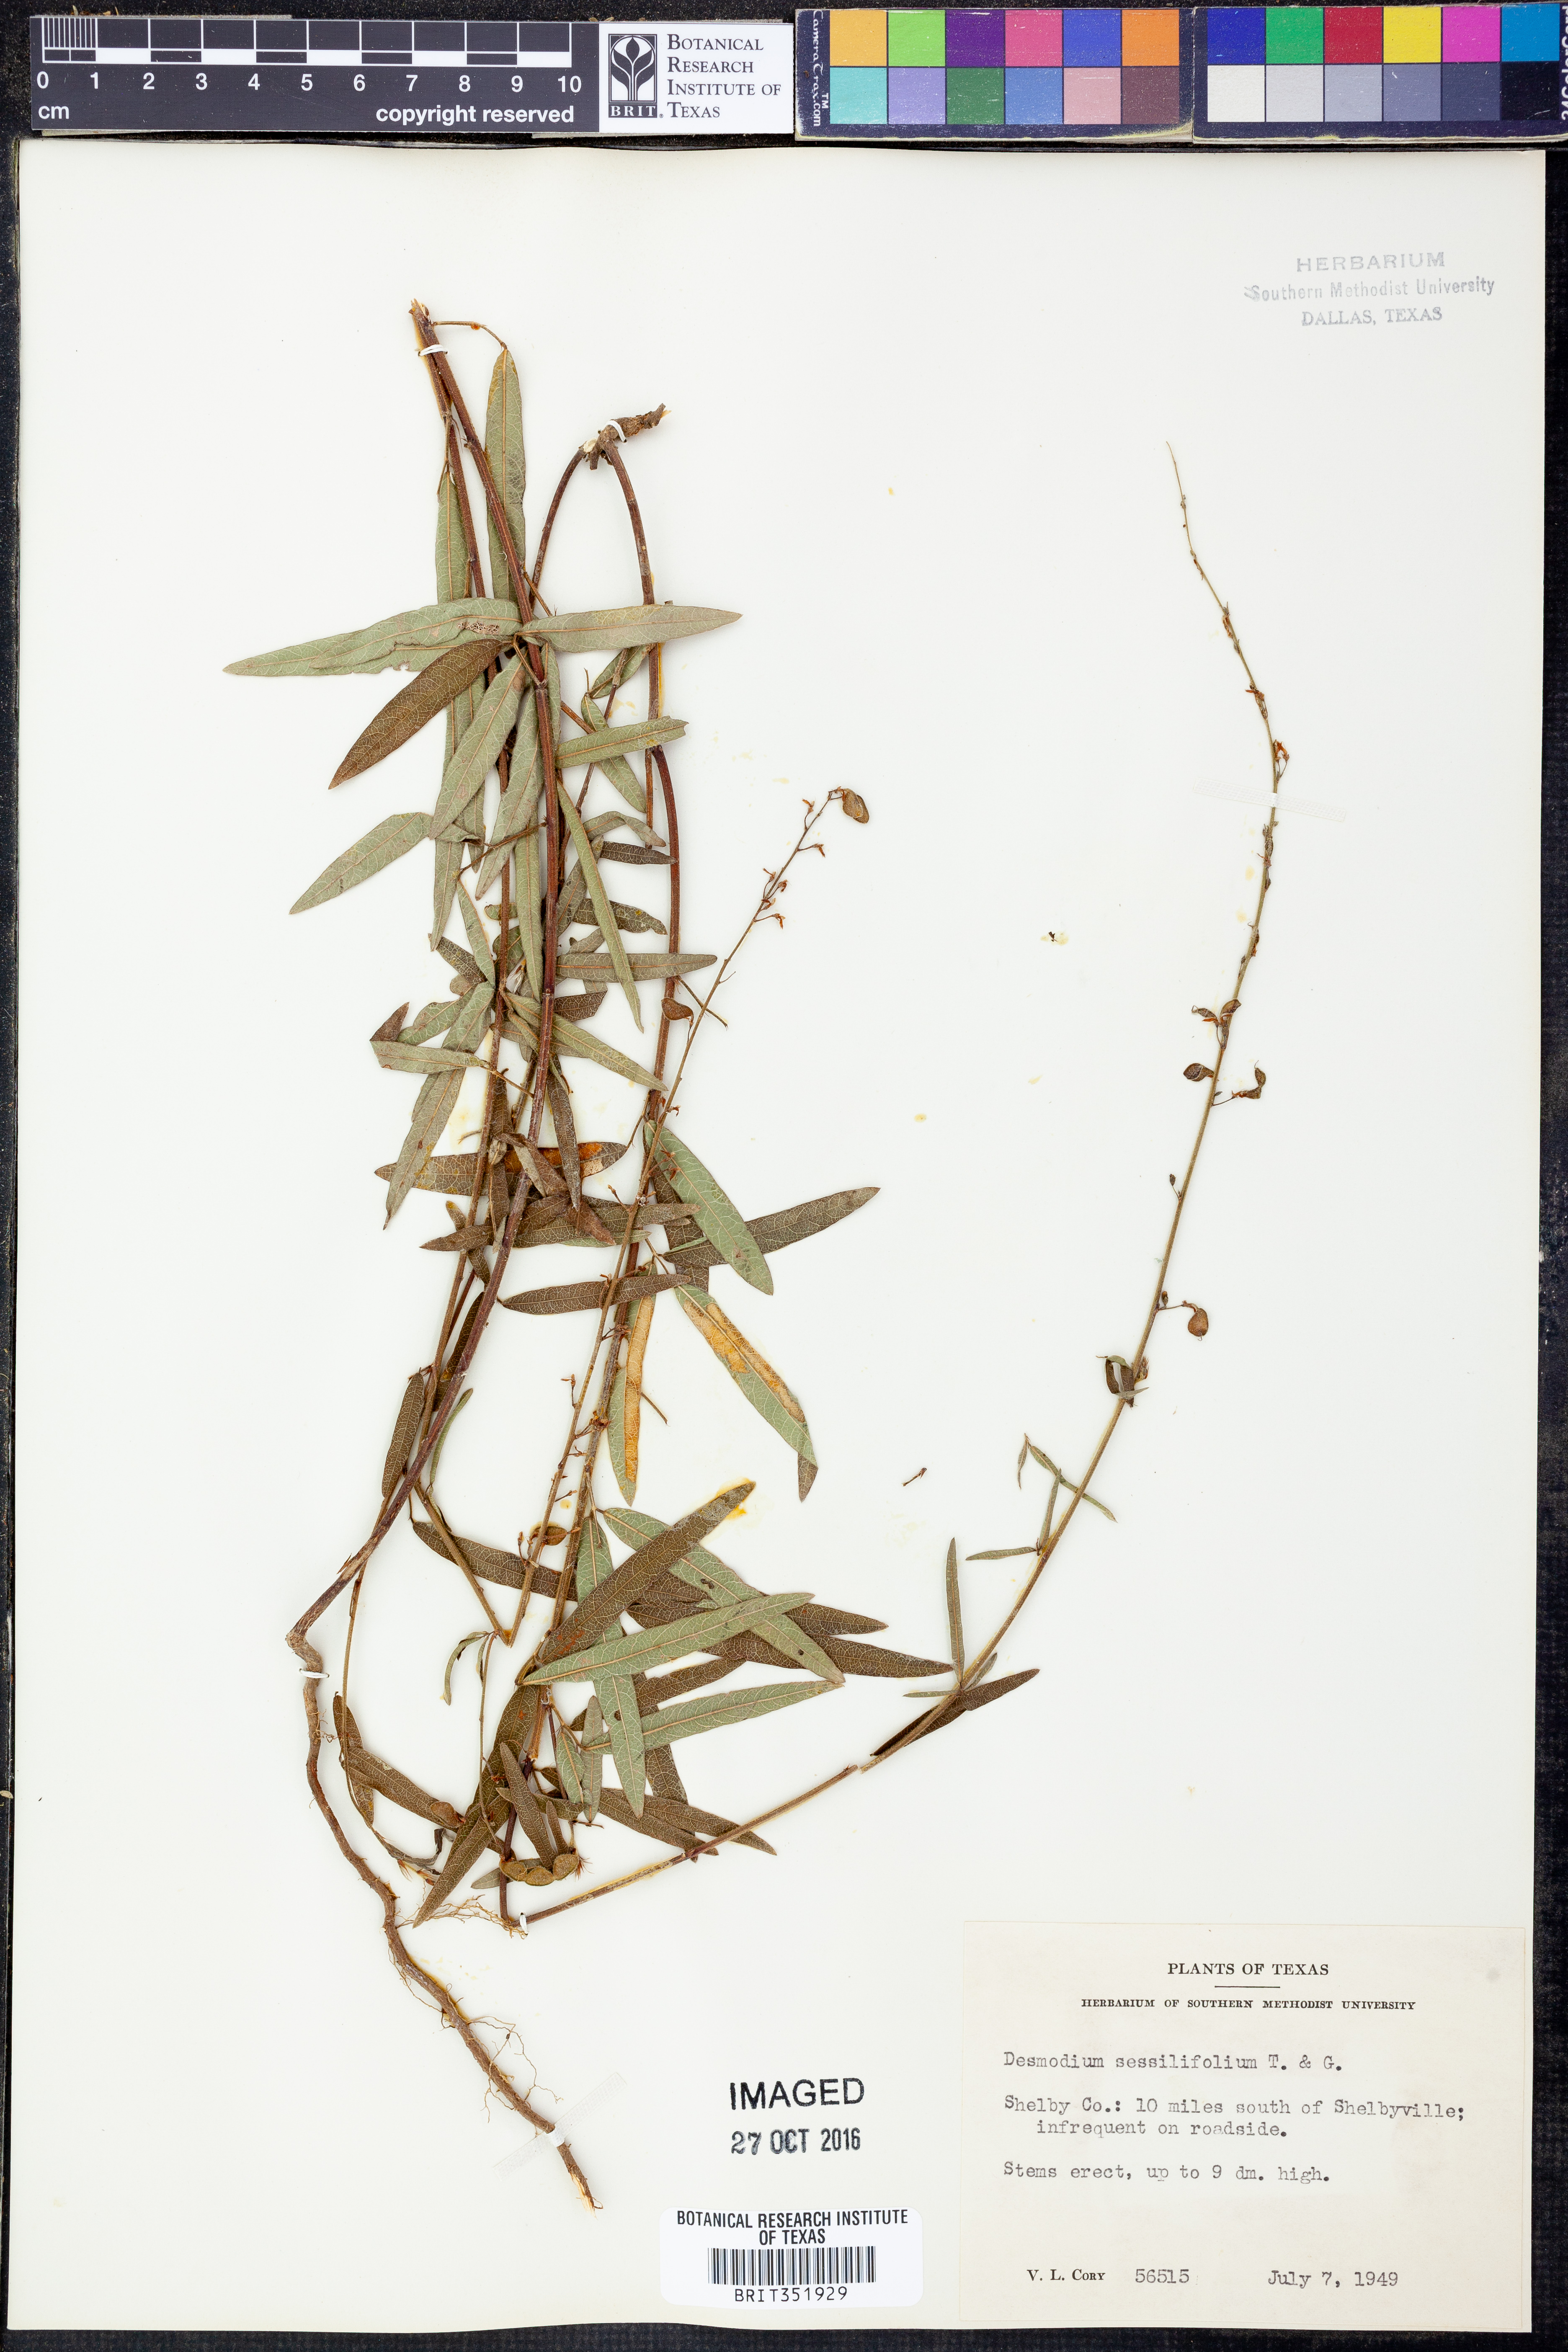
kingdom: Plantae
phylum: Tracheophyta
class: Magnoliopsida
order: Fabales
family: Fabaceae
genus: Desmodium
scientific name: Desmodium sessilifolium
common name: Sessile tick-clover
